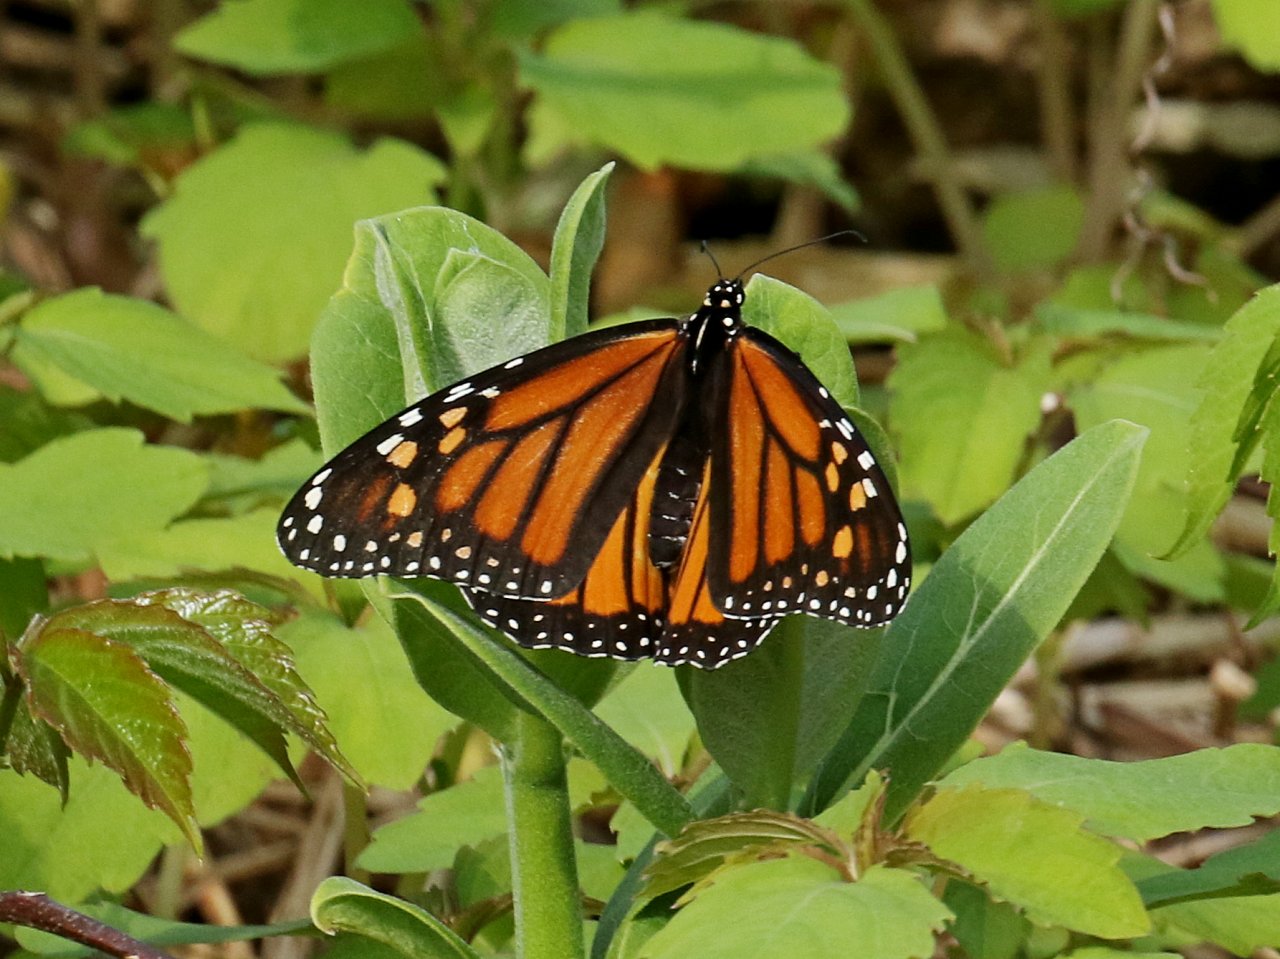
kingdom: Animalia
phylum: Arthropoda
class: Insecta
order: Lepidoptera
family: Nymphalidae
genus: Danaus
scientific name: Danaus plexippus
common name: Monarch
